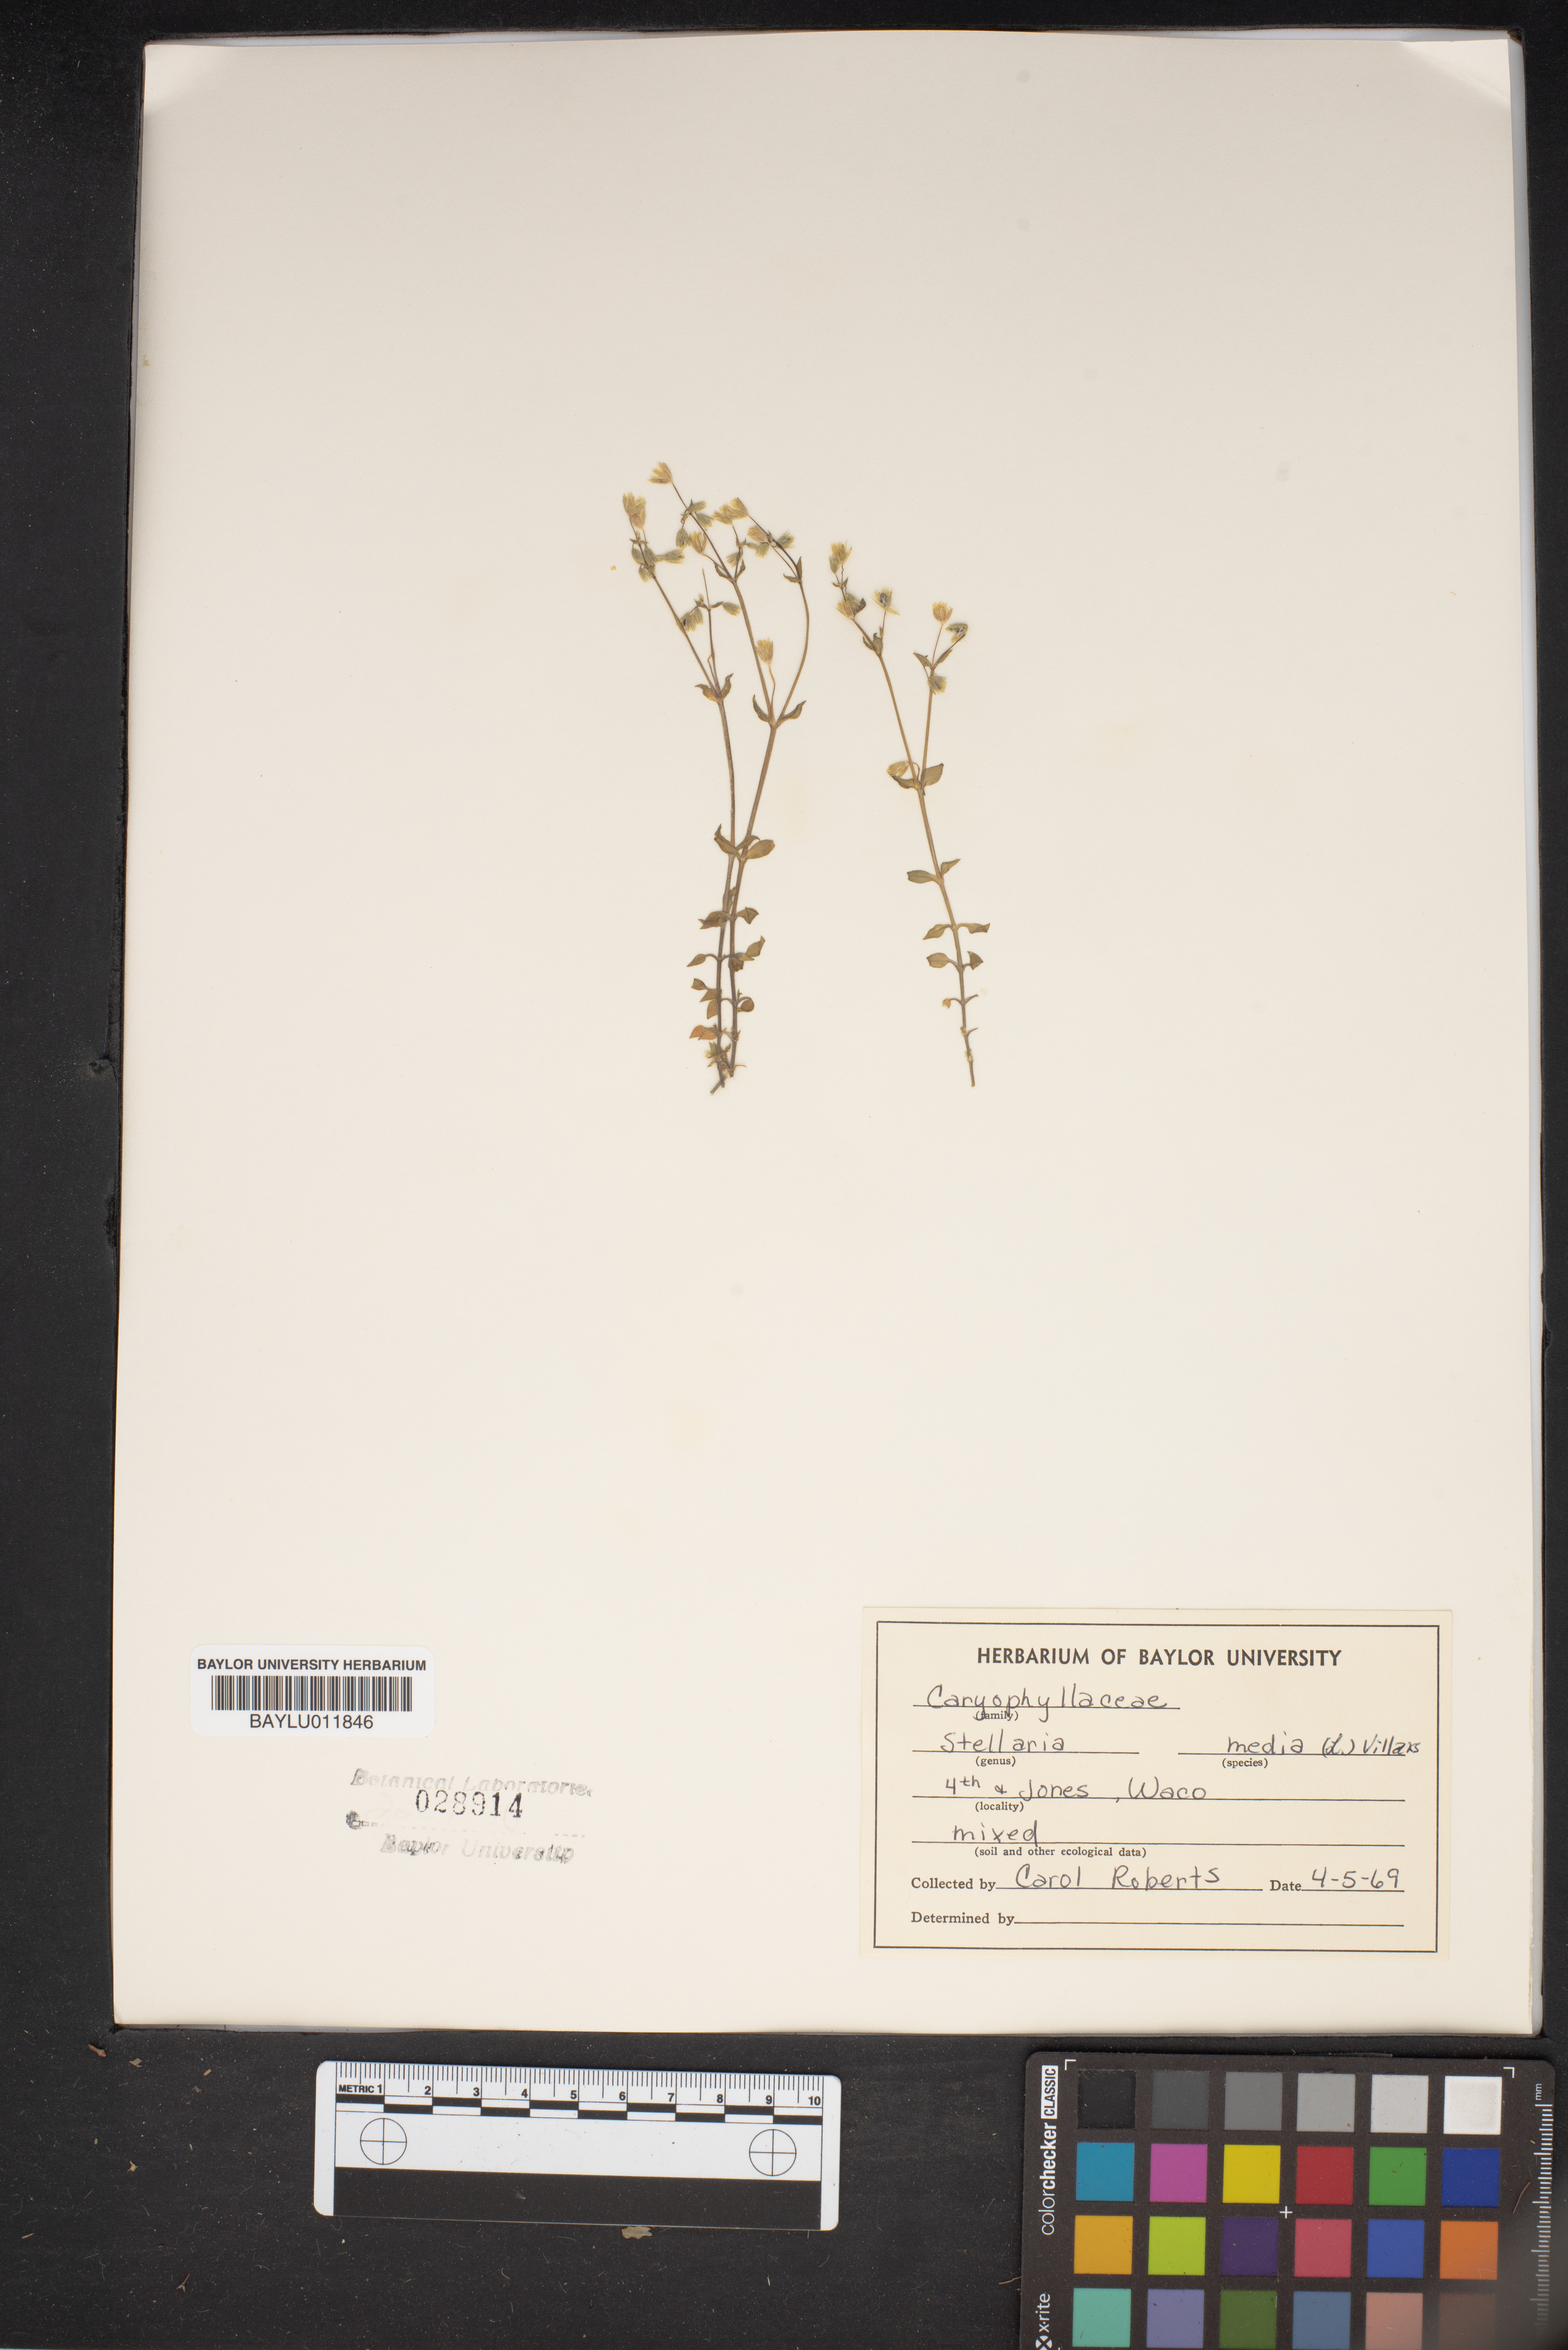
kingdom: Plantae
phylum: Tracheophyta
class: Magnoliopsida
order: Caryophyllales
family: Caryophyllaceae
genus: Stellaria
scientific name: Stellaria media
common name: Common chickweed
